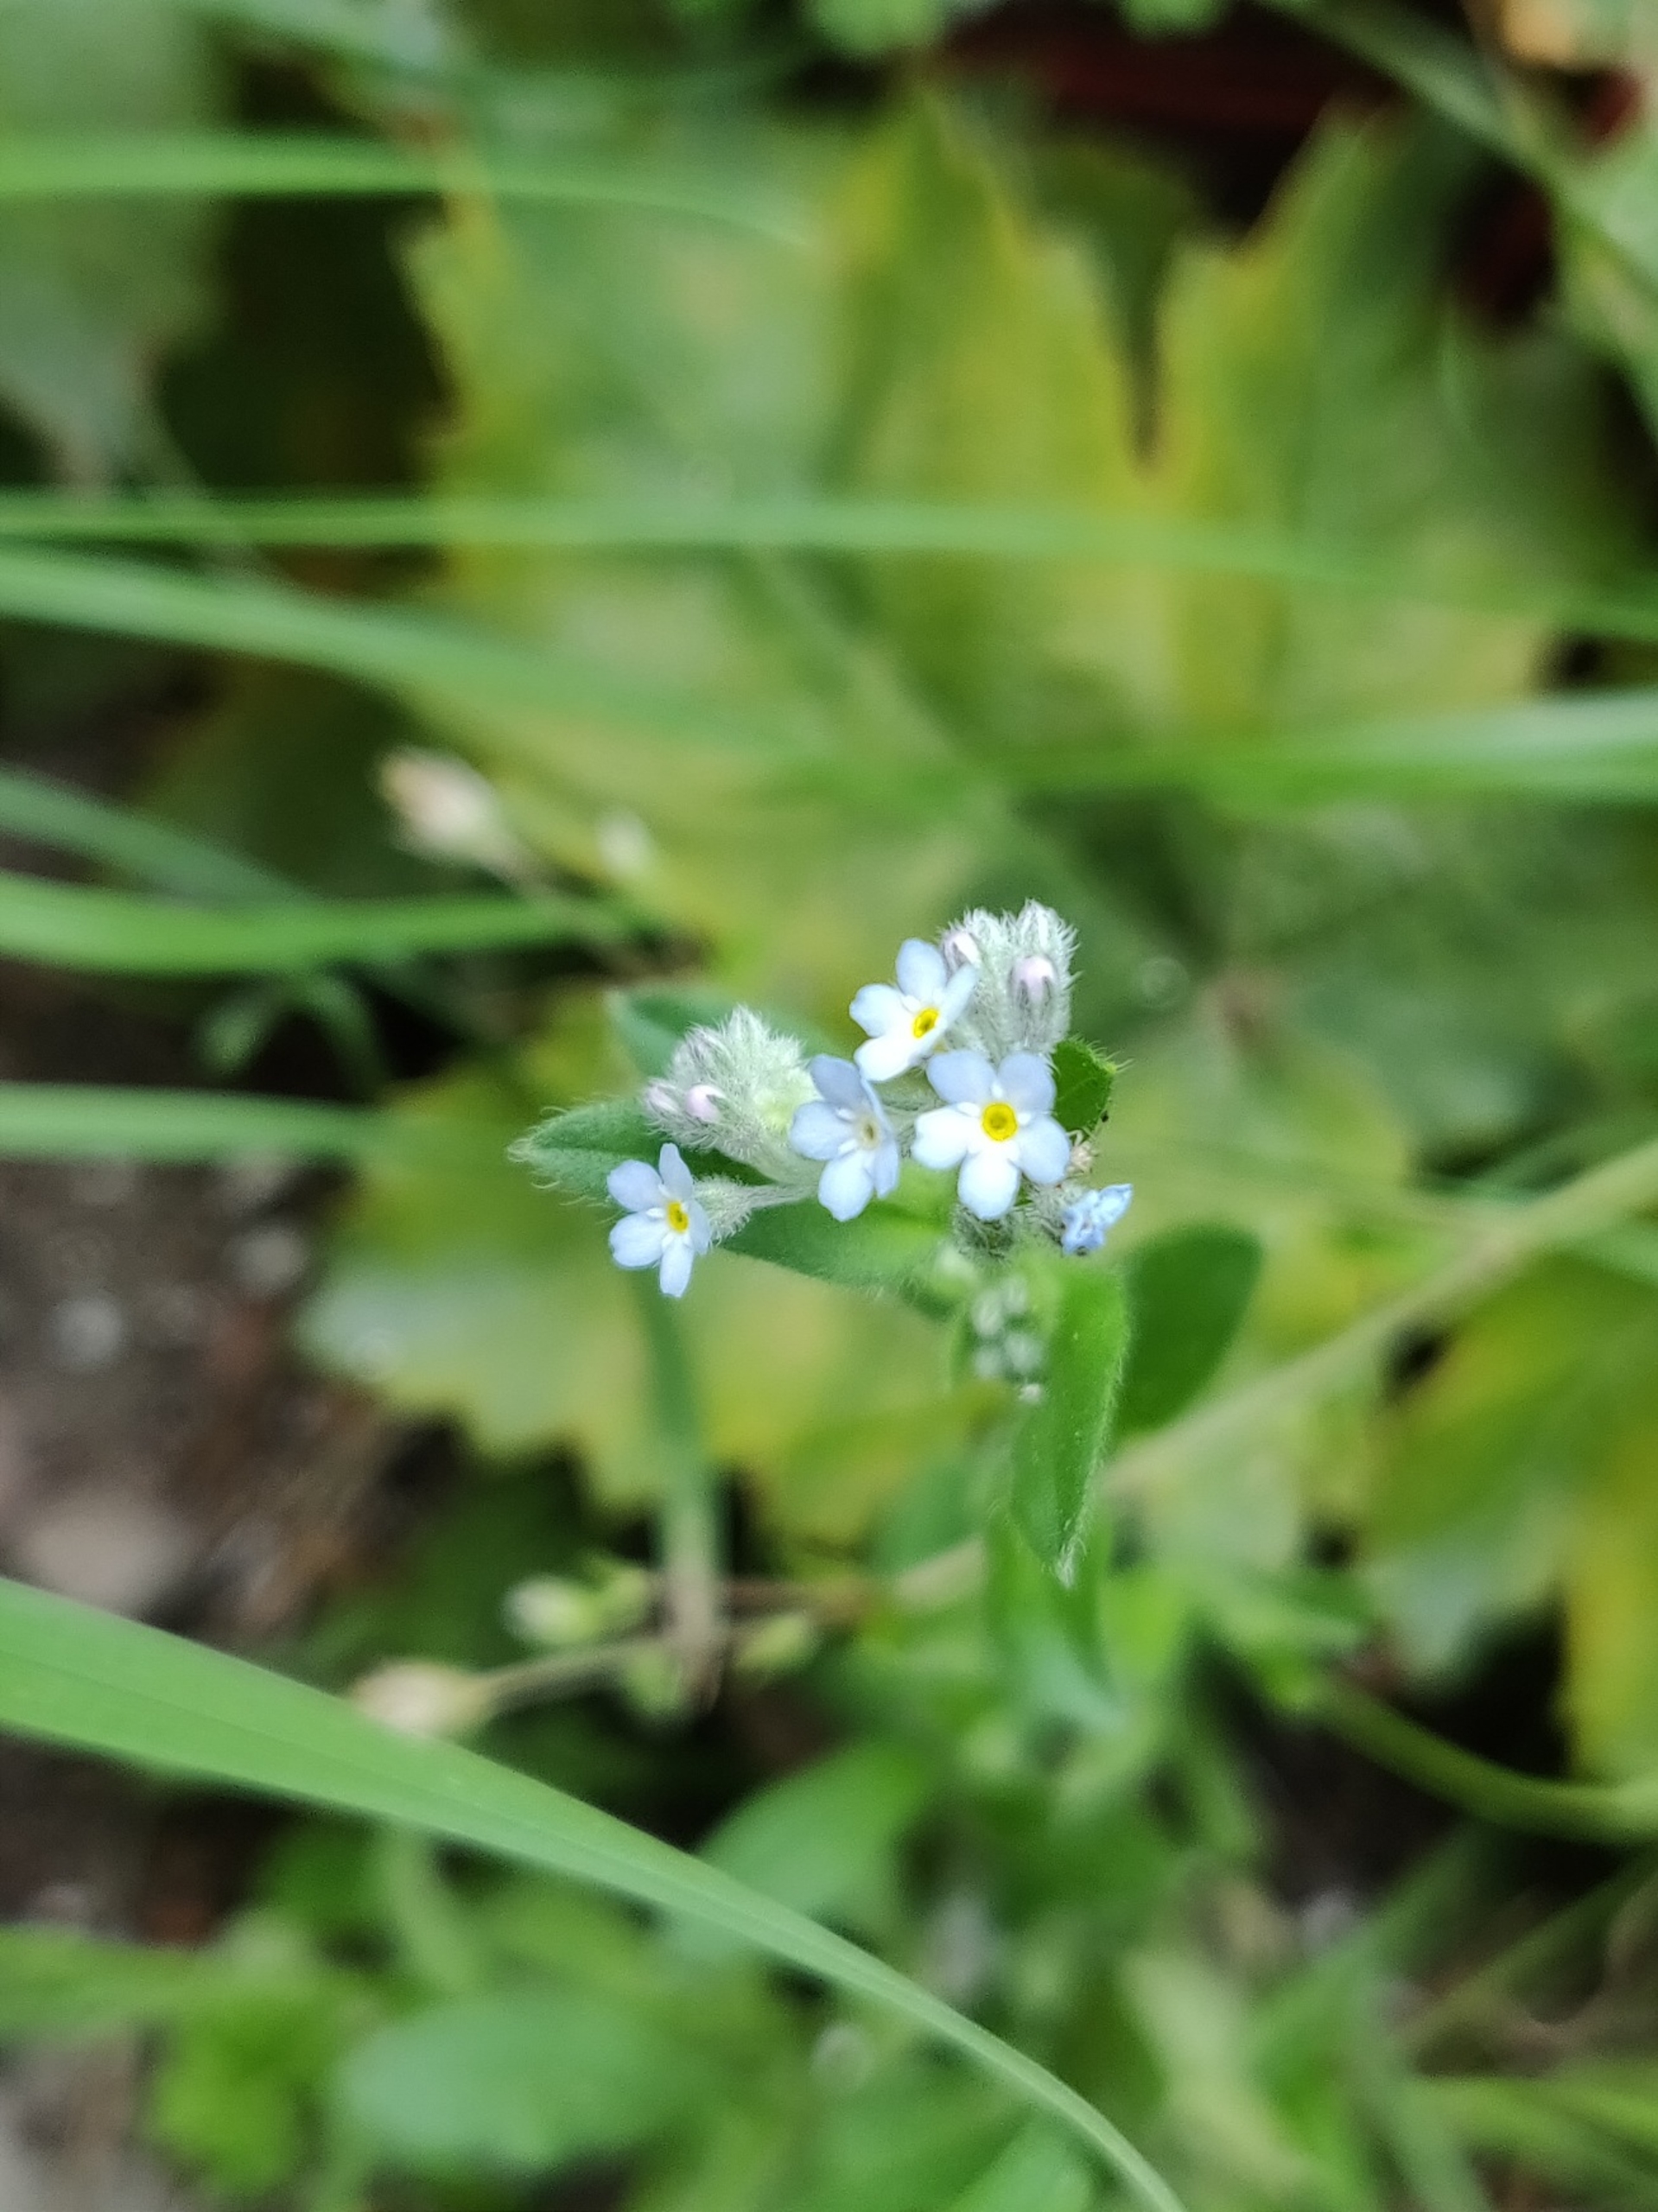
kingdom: Plantae
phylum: Tracheophyta
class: Magnoliopsida
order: Boraginales
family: Boraginaceae
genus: Myosotis
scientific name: Myosotis arvensis
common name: Mark-forglemmigej
